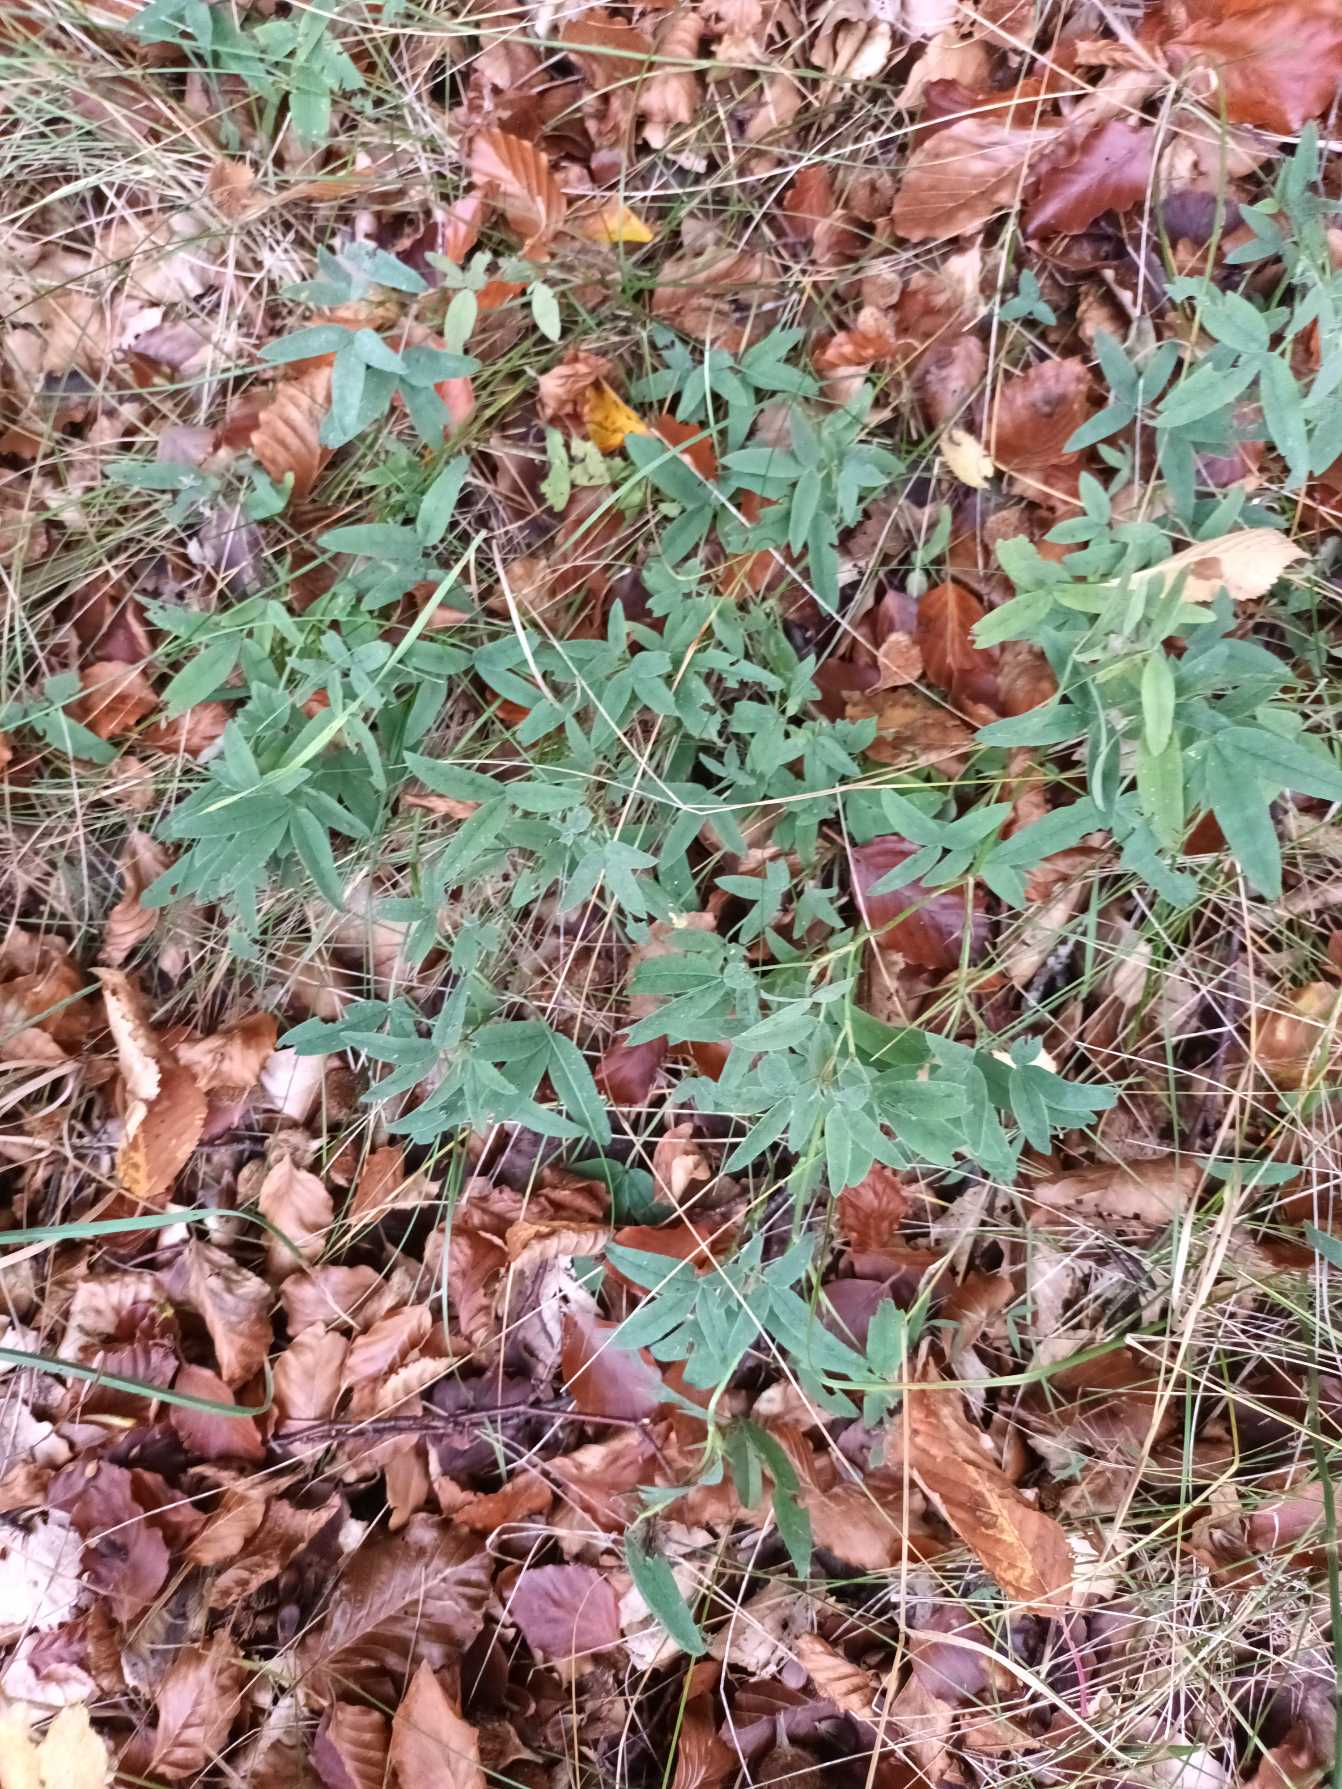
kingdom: Plantae
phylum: Tracheophyta
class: Magnoliopsida
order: Fabales
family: Fabaceae
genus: Trifolium
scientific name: Trifolium medium
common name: Bugtet kløver
